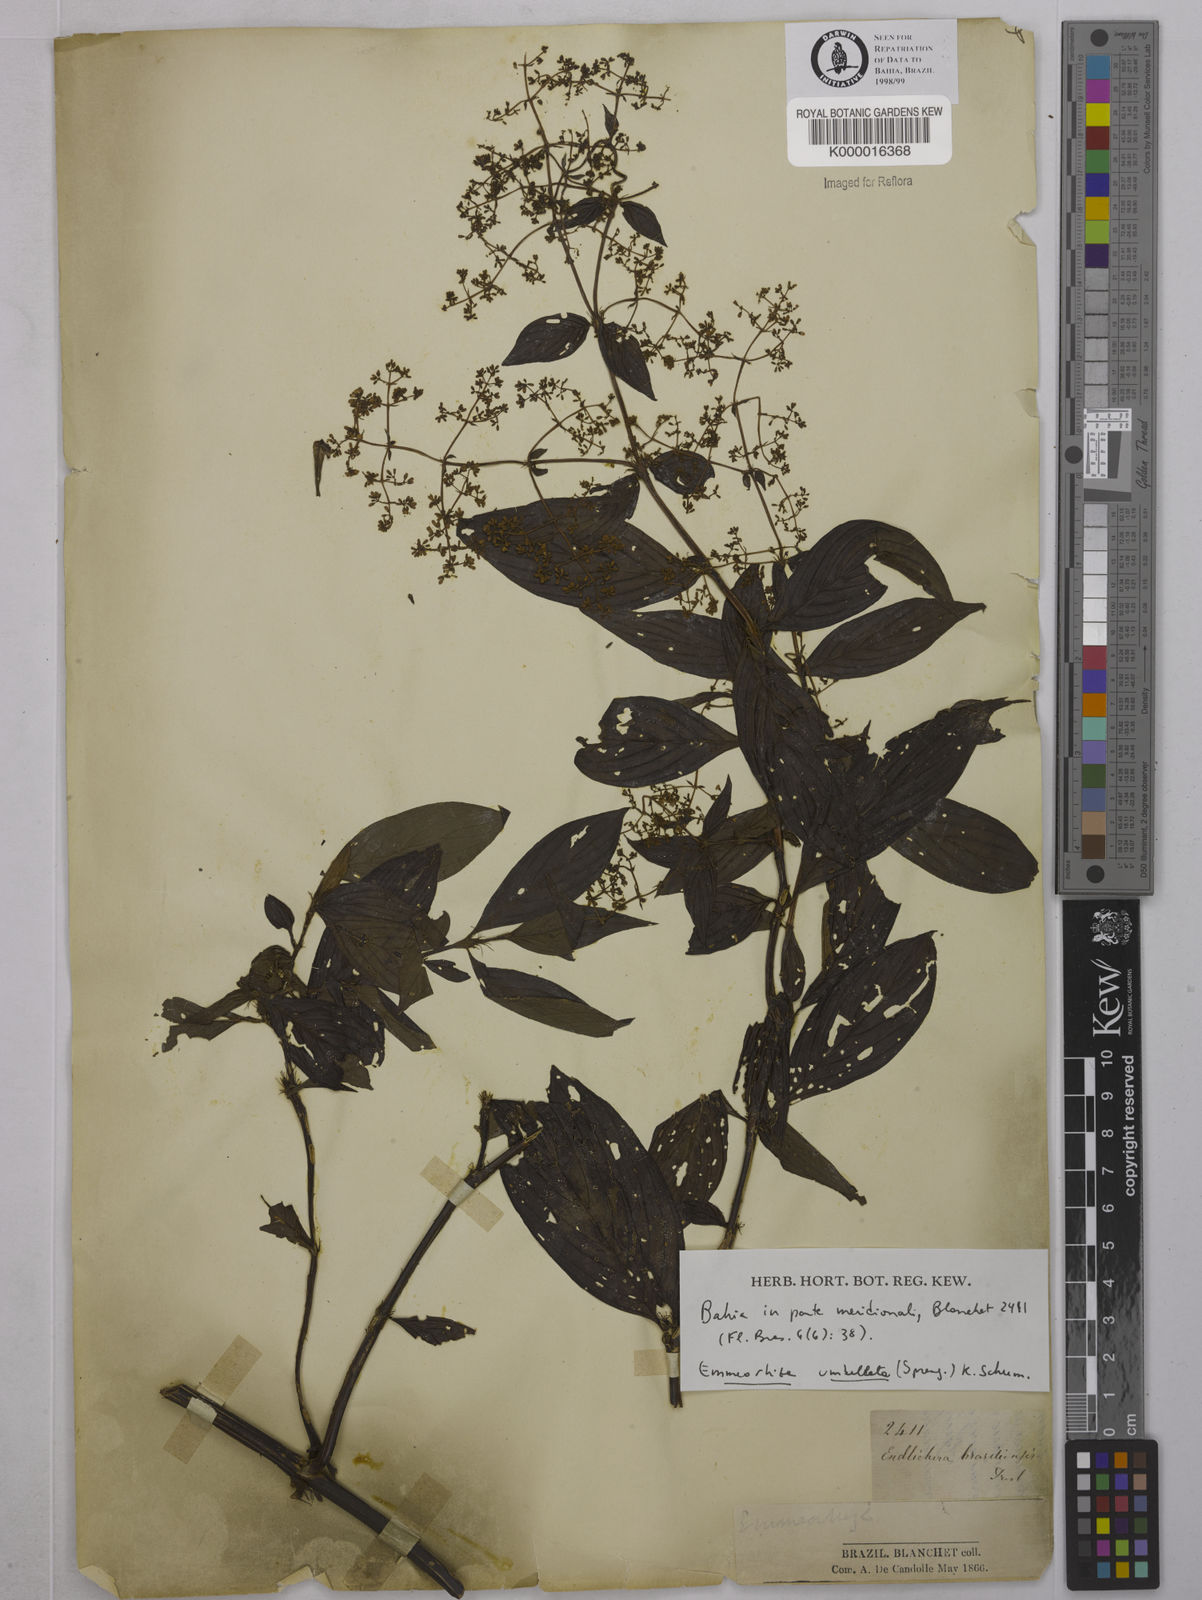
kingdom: Plantae
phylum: Tracheophyta
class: Magnoliopsida
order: Gentianales
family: Rubiaceae
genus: Emmeorhiza
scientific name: Emmeorhiza umbellata
